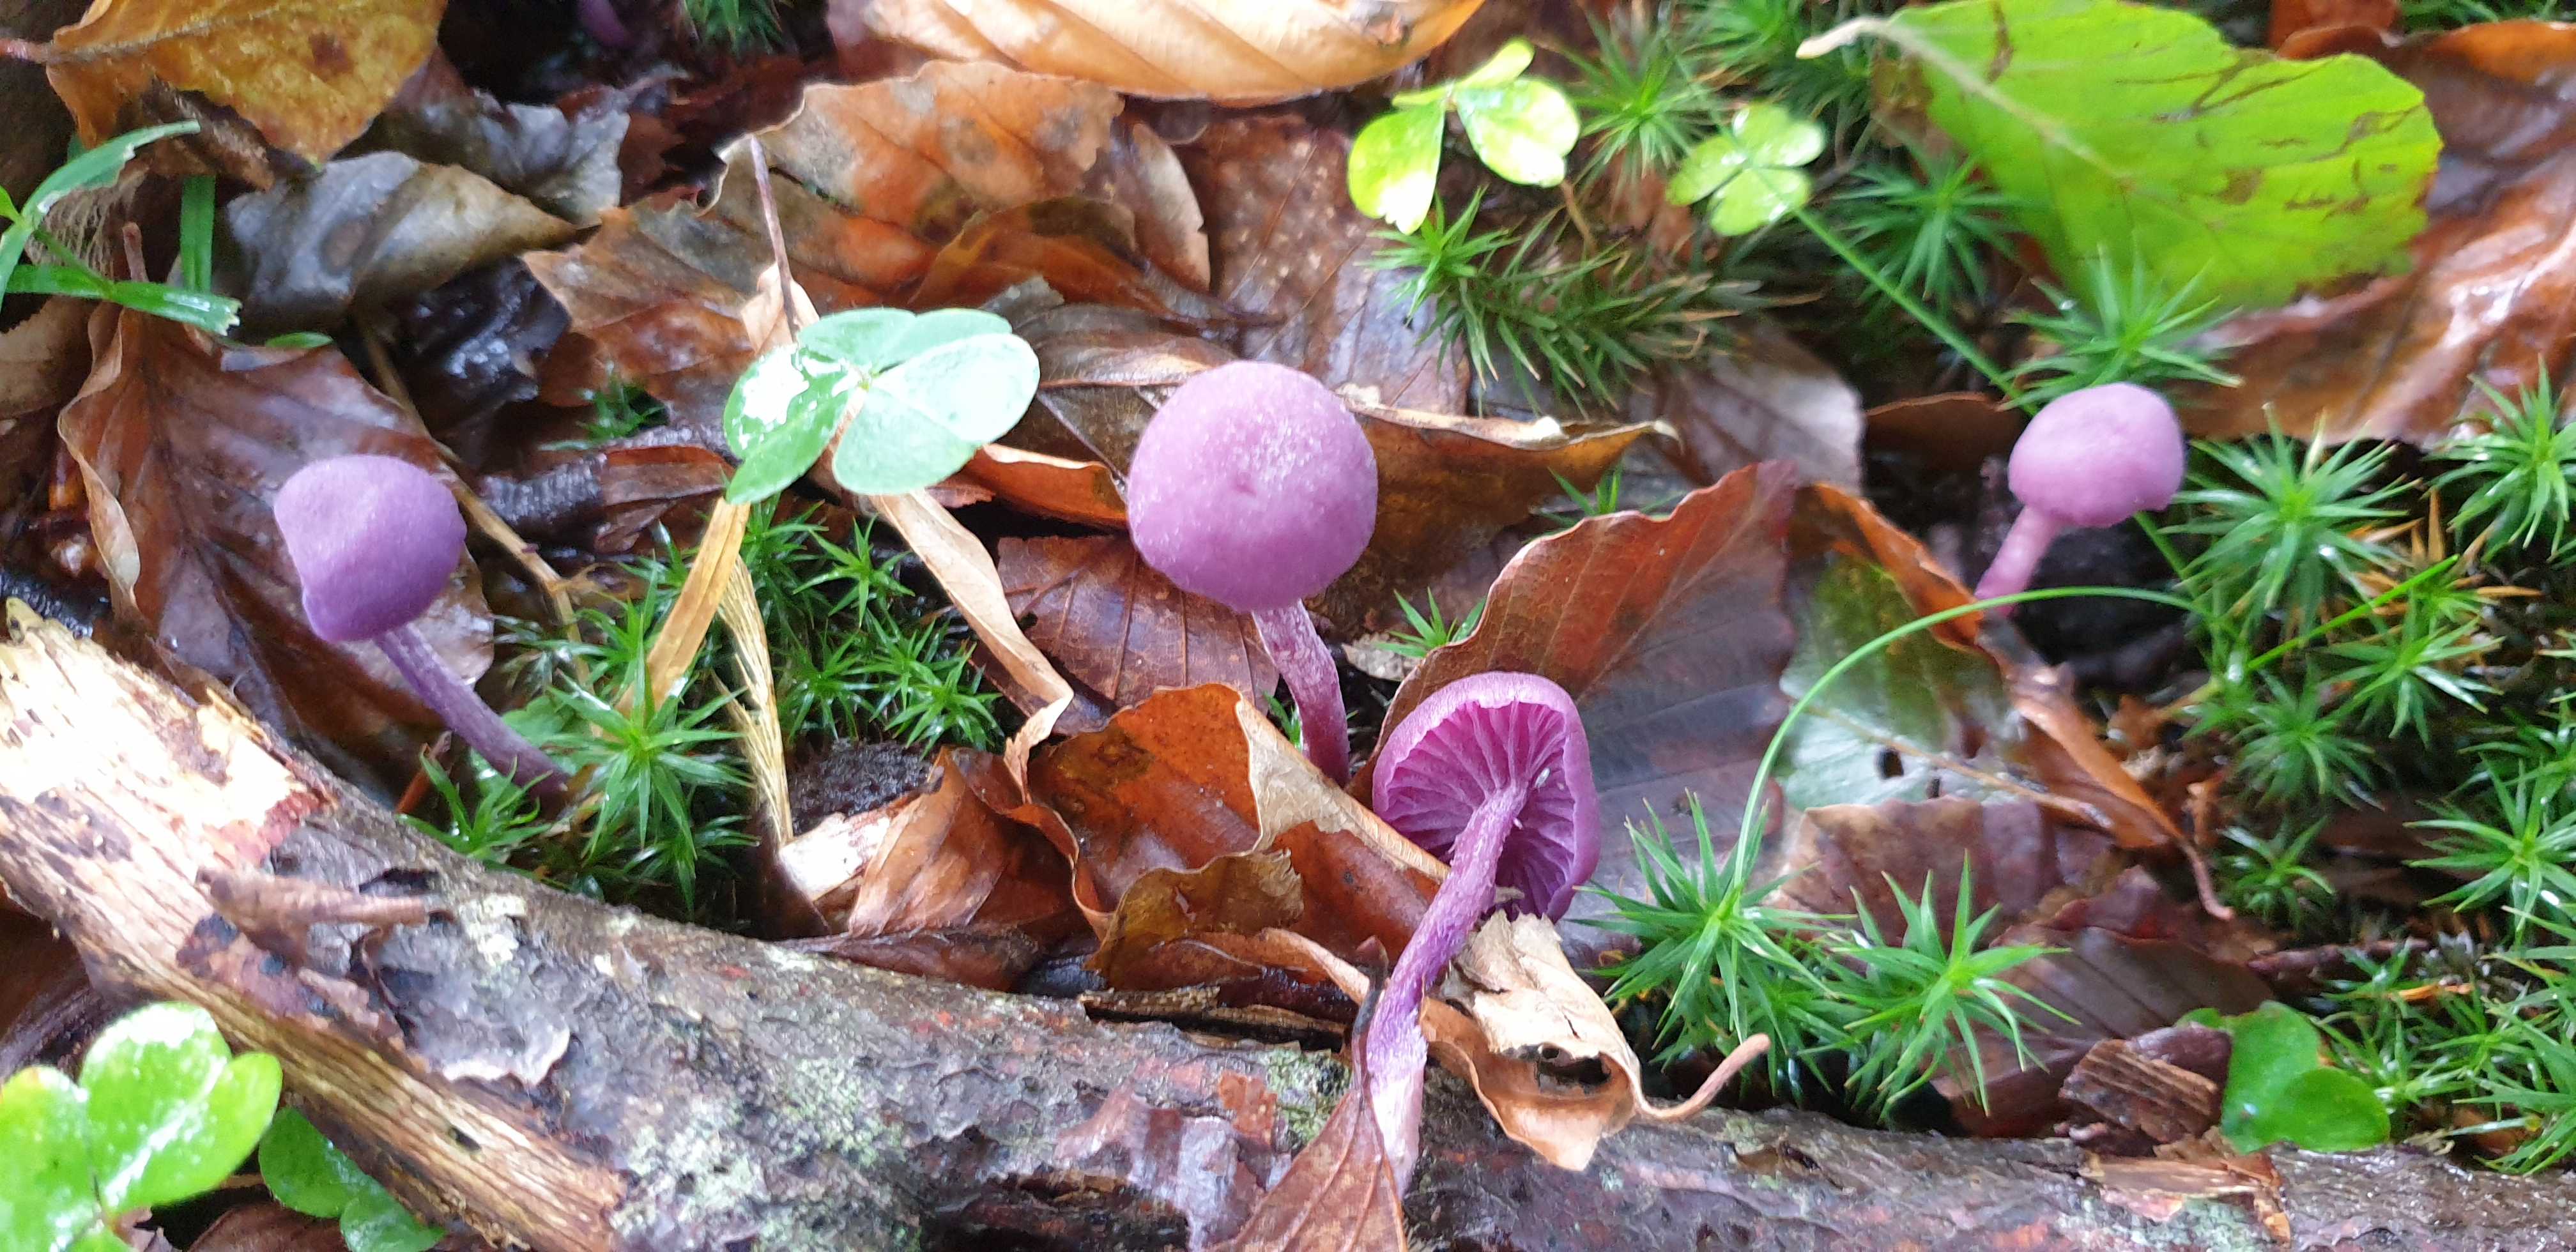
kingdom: Fungi
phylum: Basidiomycota
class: Agaricomycetes
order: Agaricales
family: Hydnangiaceae
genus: Laccaria
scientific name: Laccaria amethystina
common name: violet ametysthat
